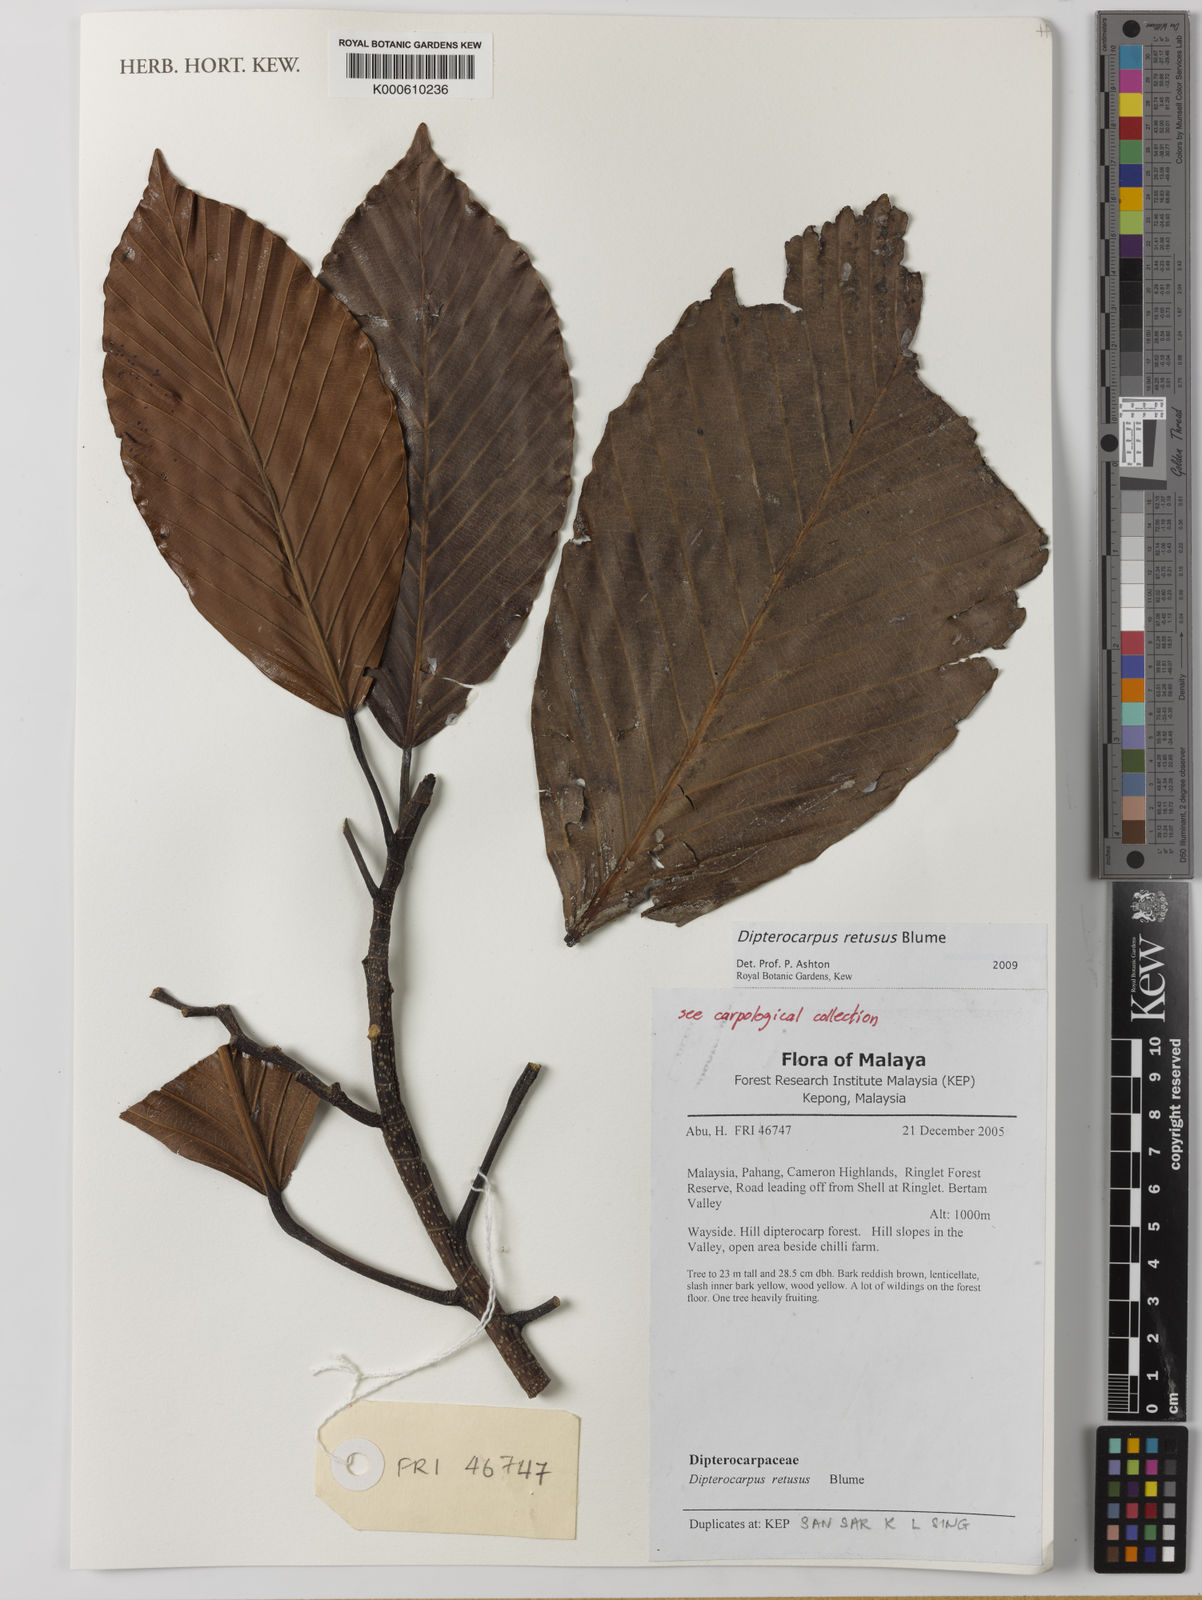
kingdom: Plantae
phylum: Tracheophyta
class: Magnoliopsida
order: Malvales
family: Dipterocarpaceae
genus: Dipterocarpus
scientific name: Dipterocarpus retusus
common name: Hollong
